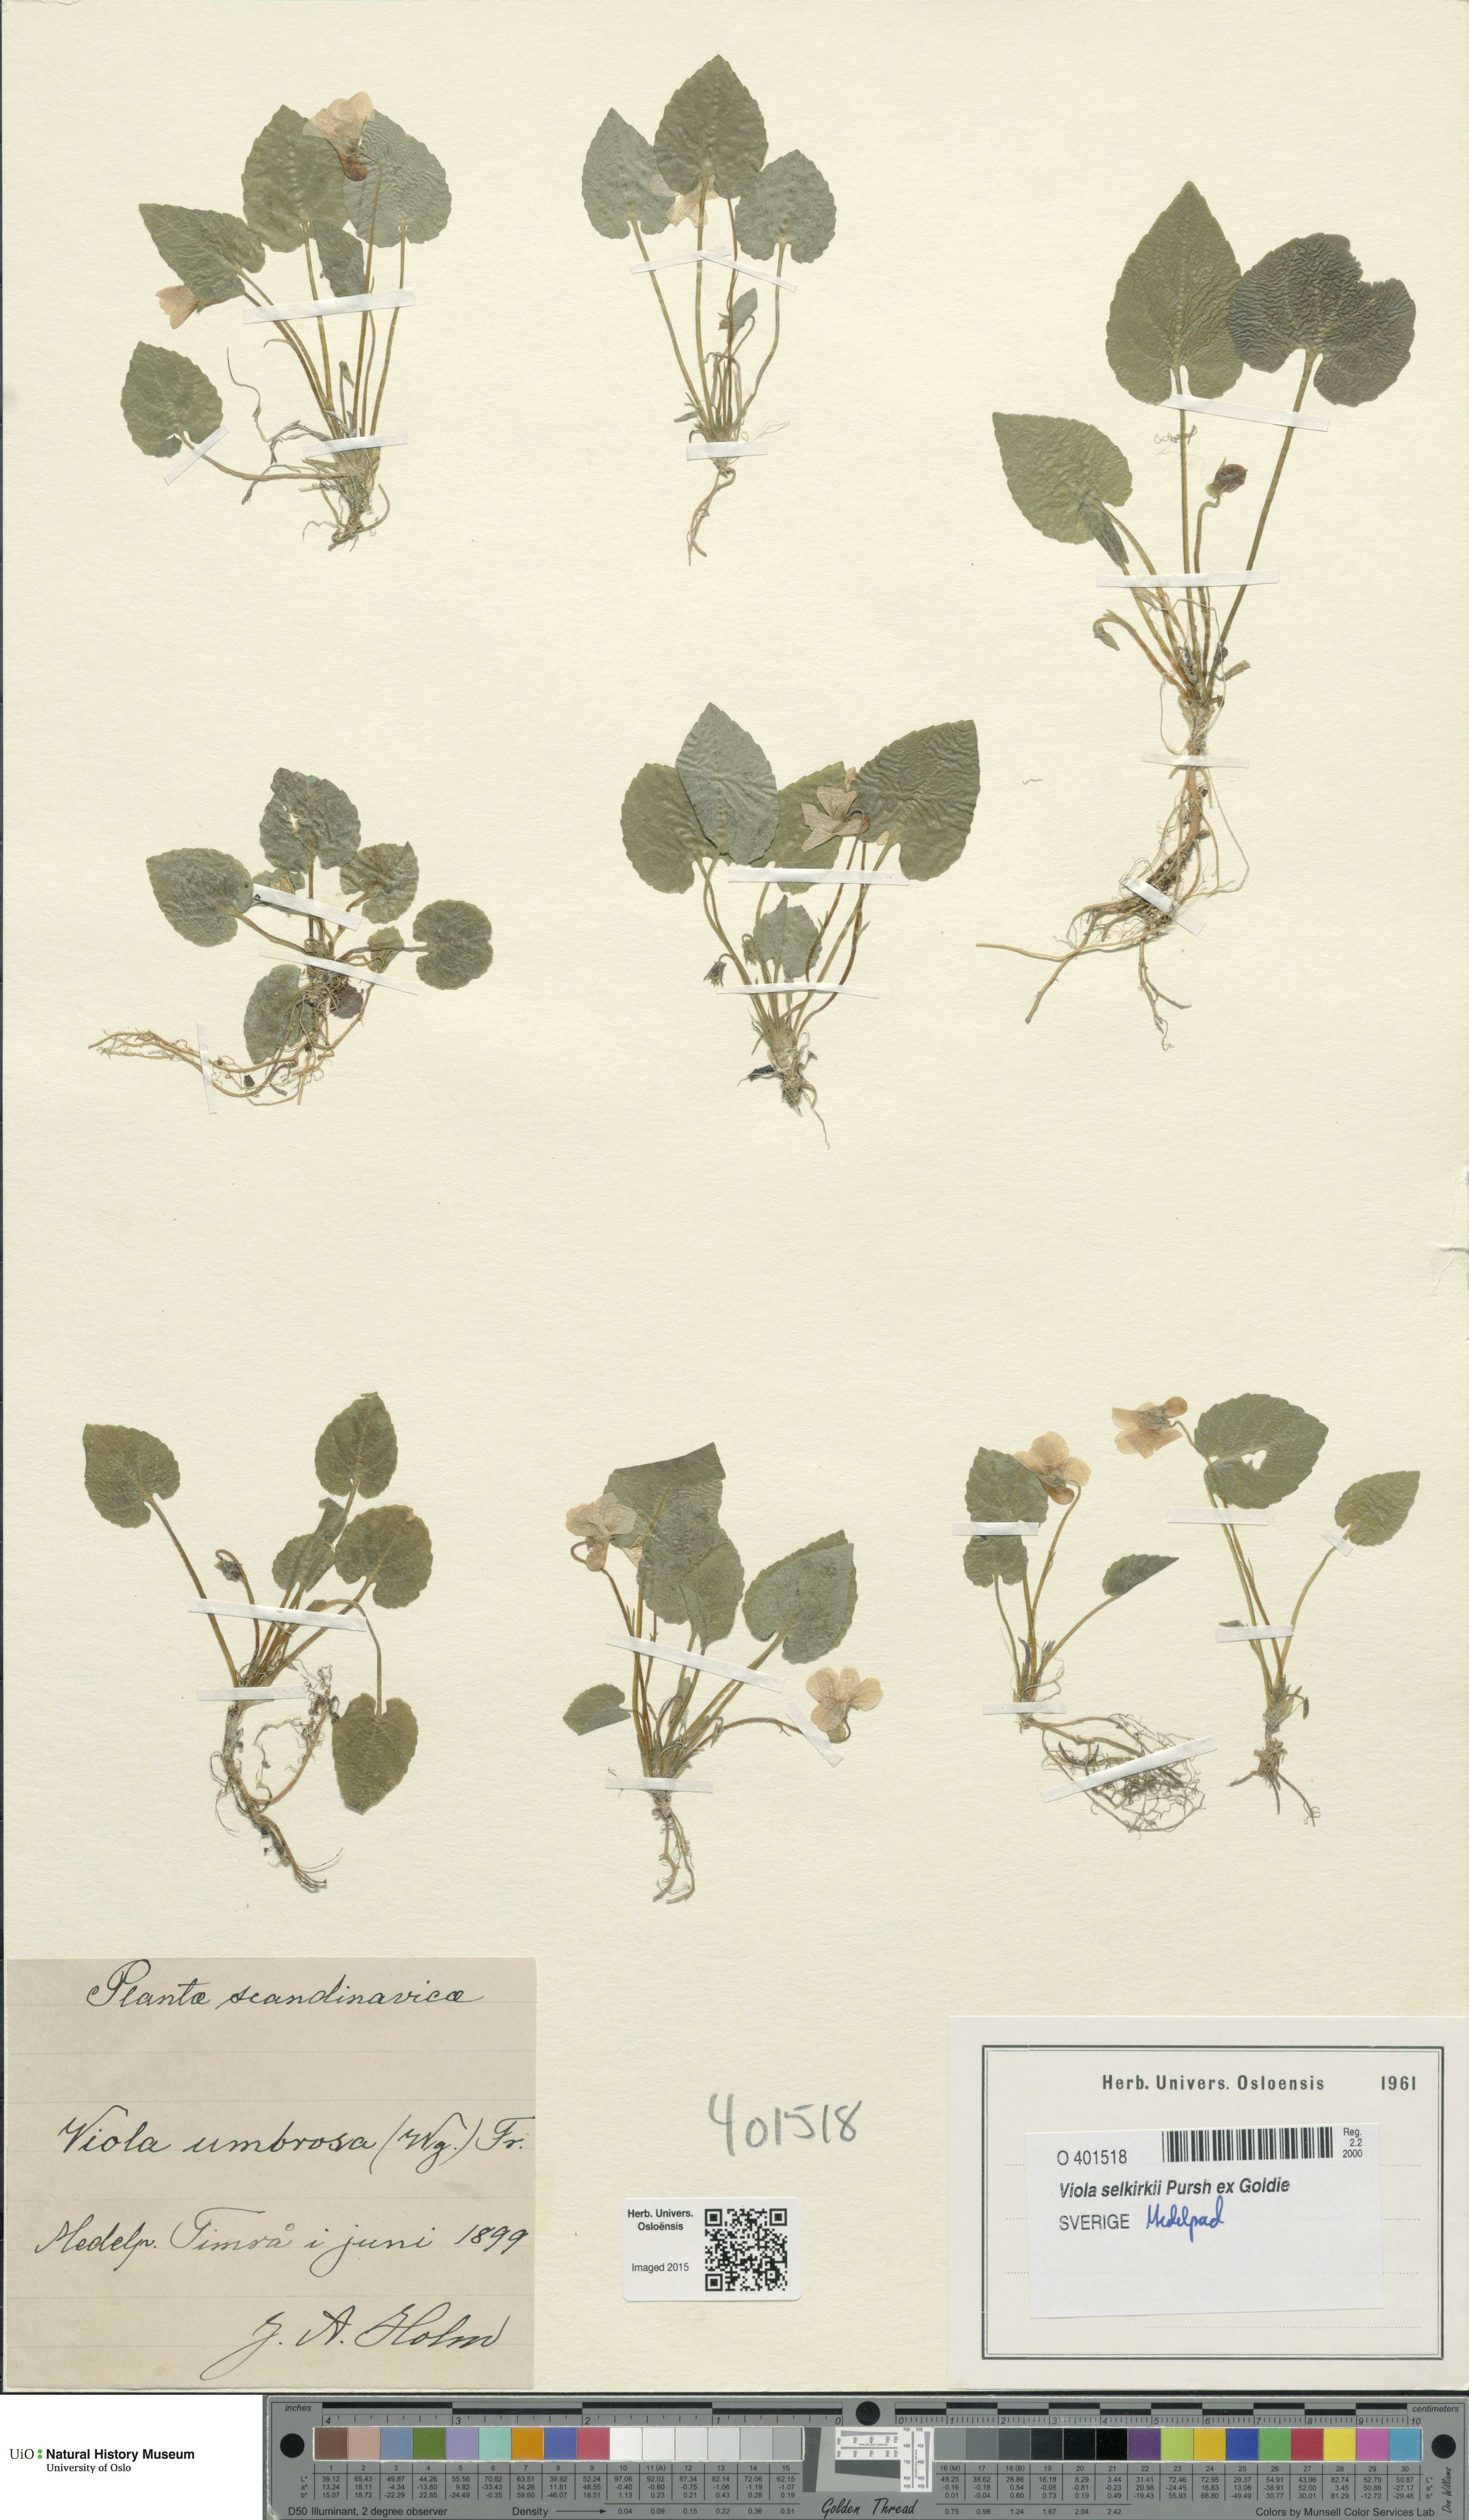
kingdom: Plantae
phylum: Tracheophyta
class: Magnoliopsida
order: Malpighiales
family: Violaceae
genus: Viola
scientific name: Viola selkirkii
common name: Selkirk's violet
